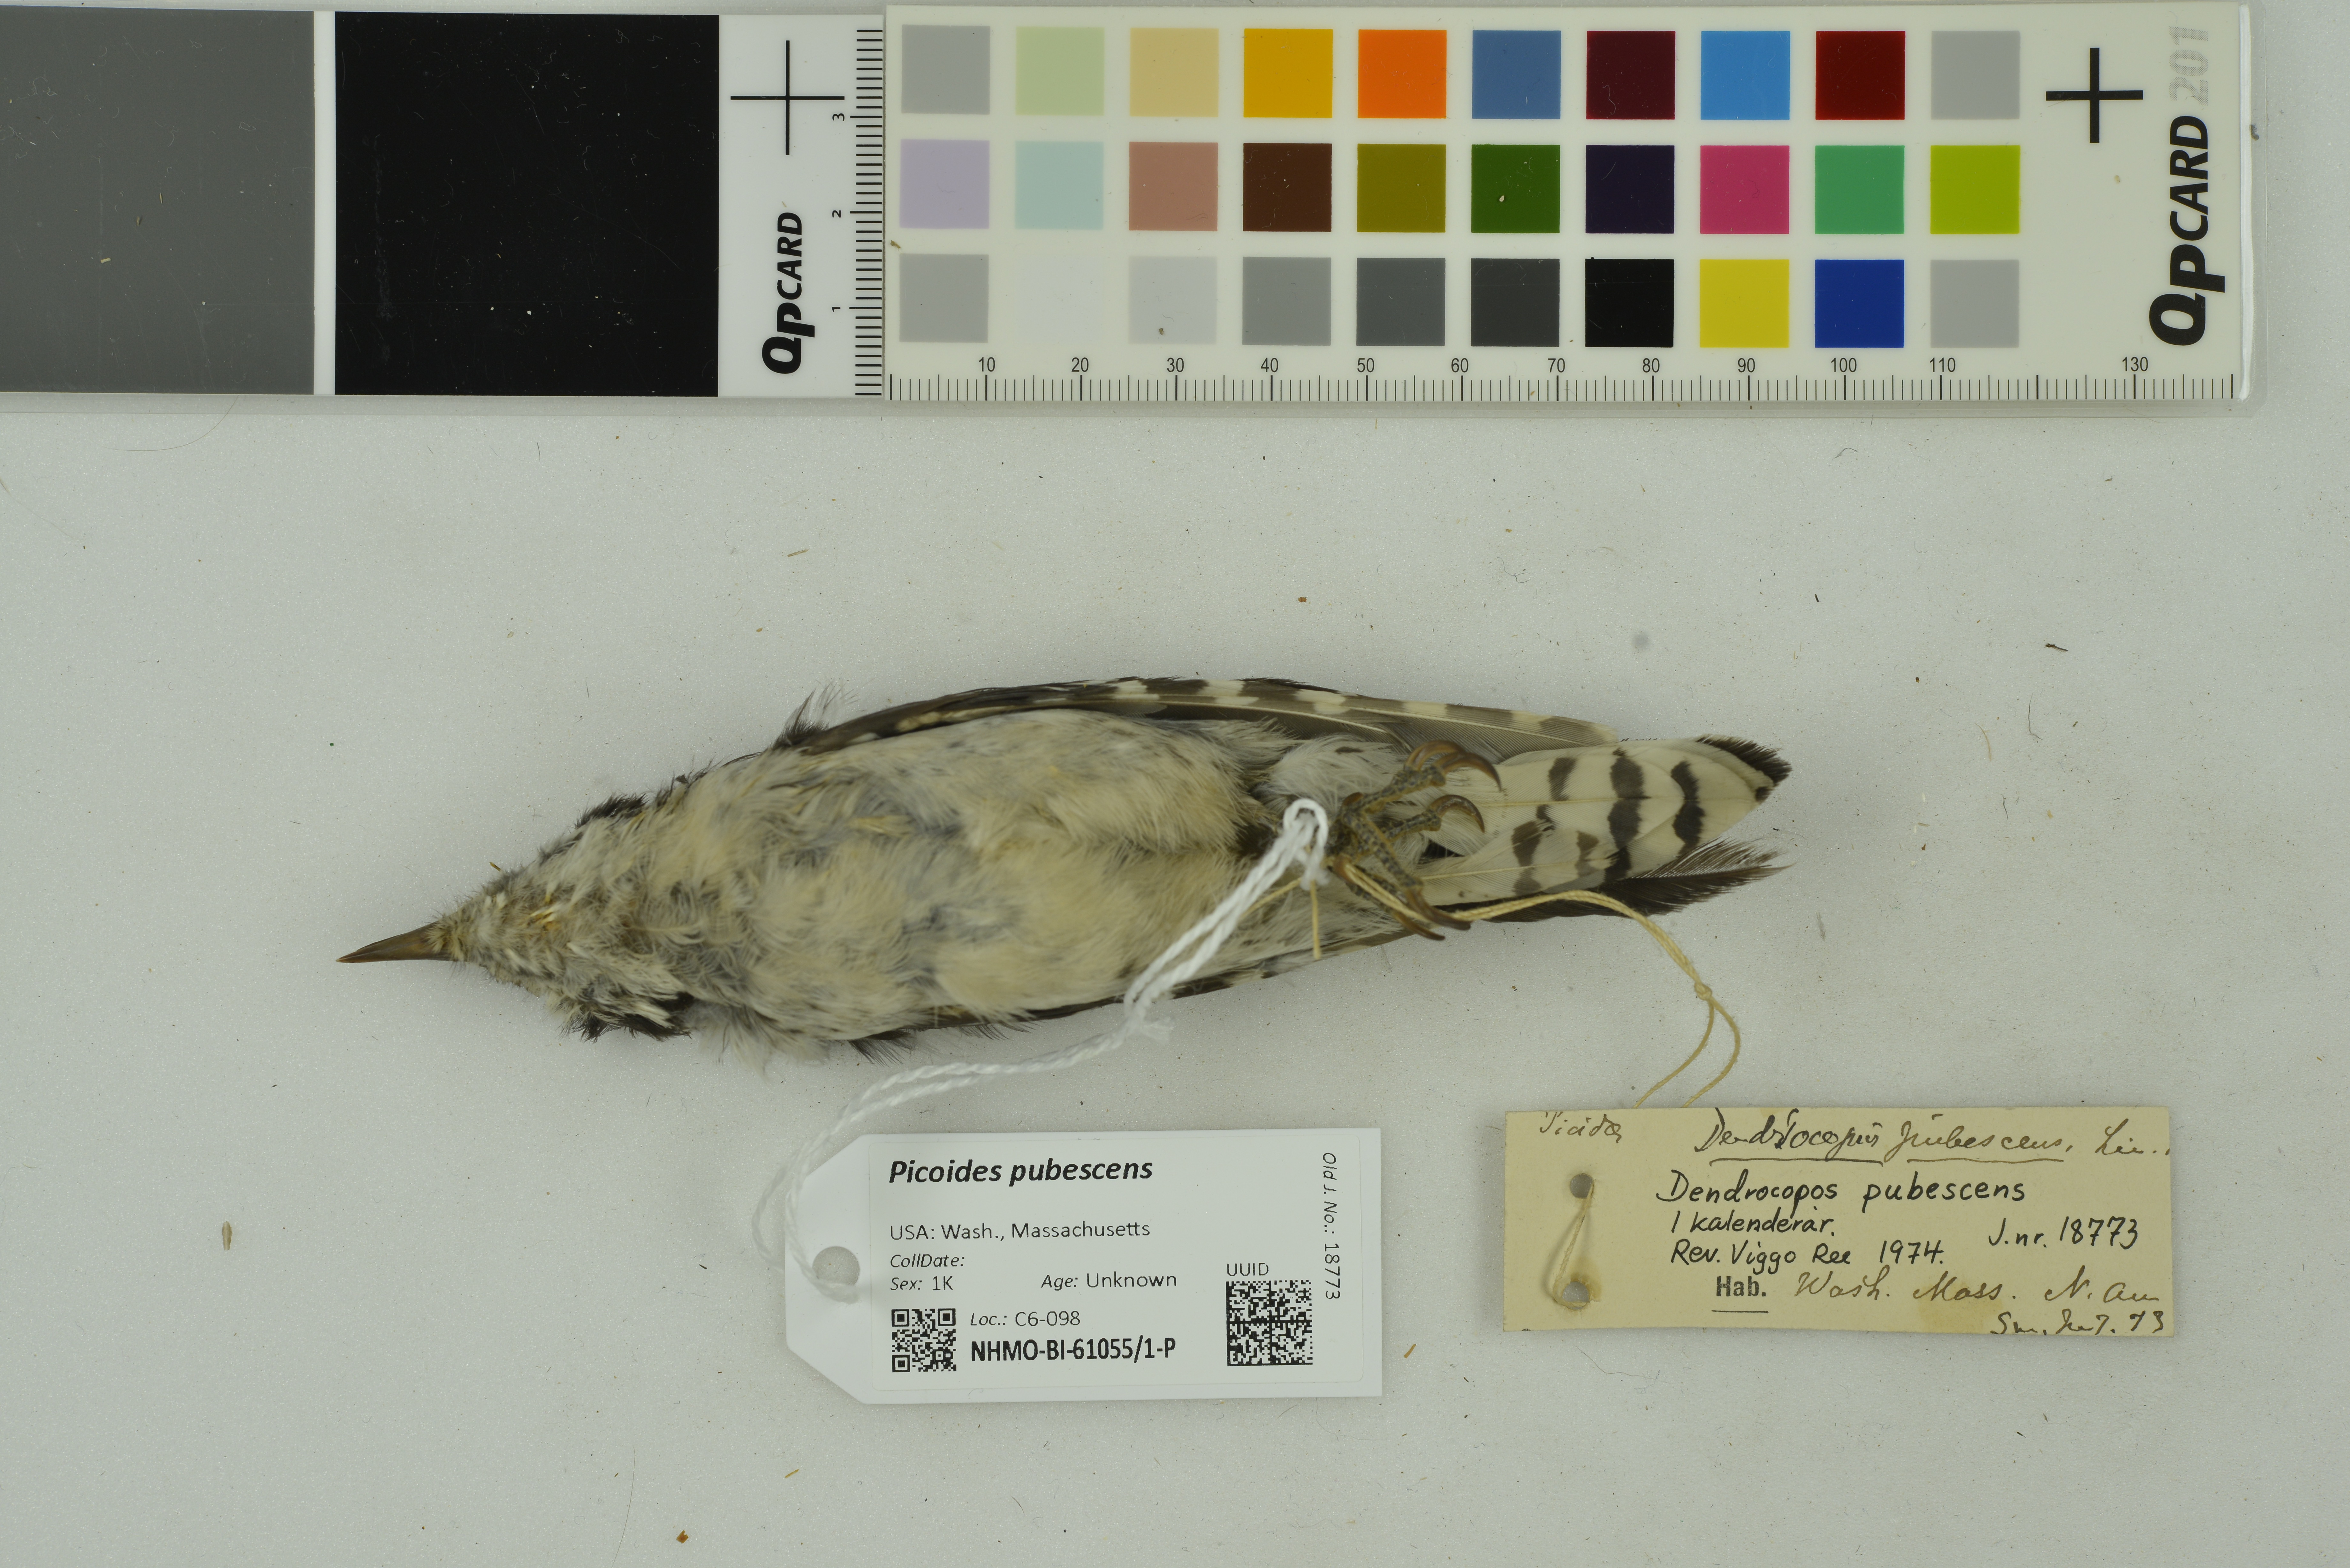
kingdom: Animalia
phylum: Chordata
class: Aves
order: Piciformes
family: Picidae
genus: Dryobates
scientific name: Dryobates pubescens
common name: Downy woodpecker
